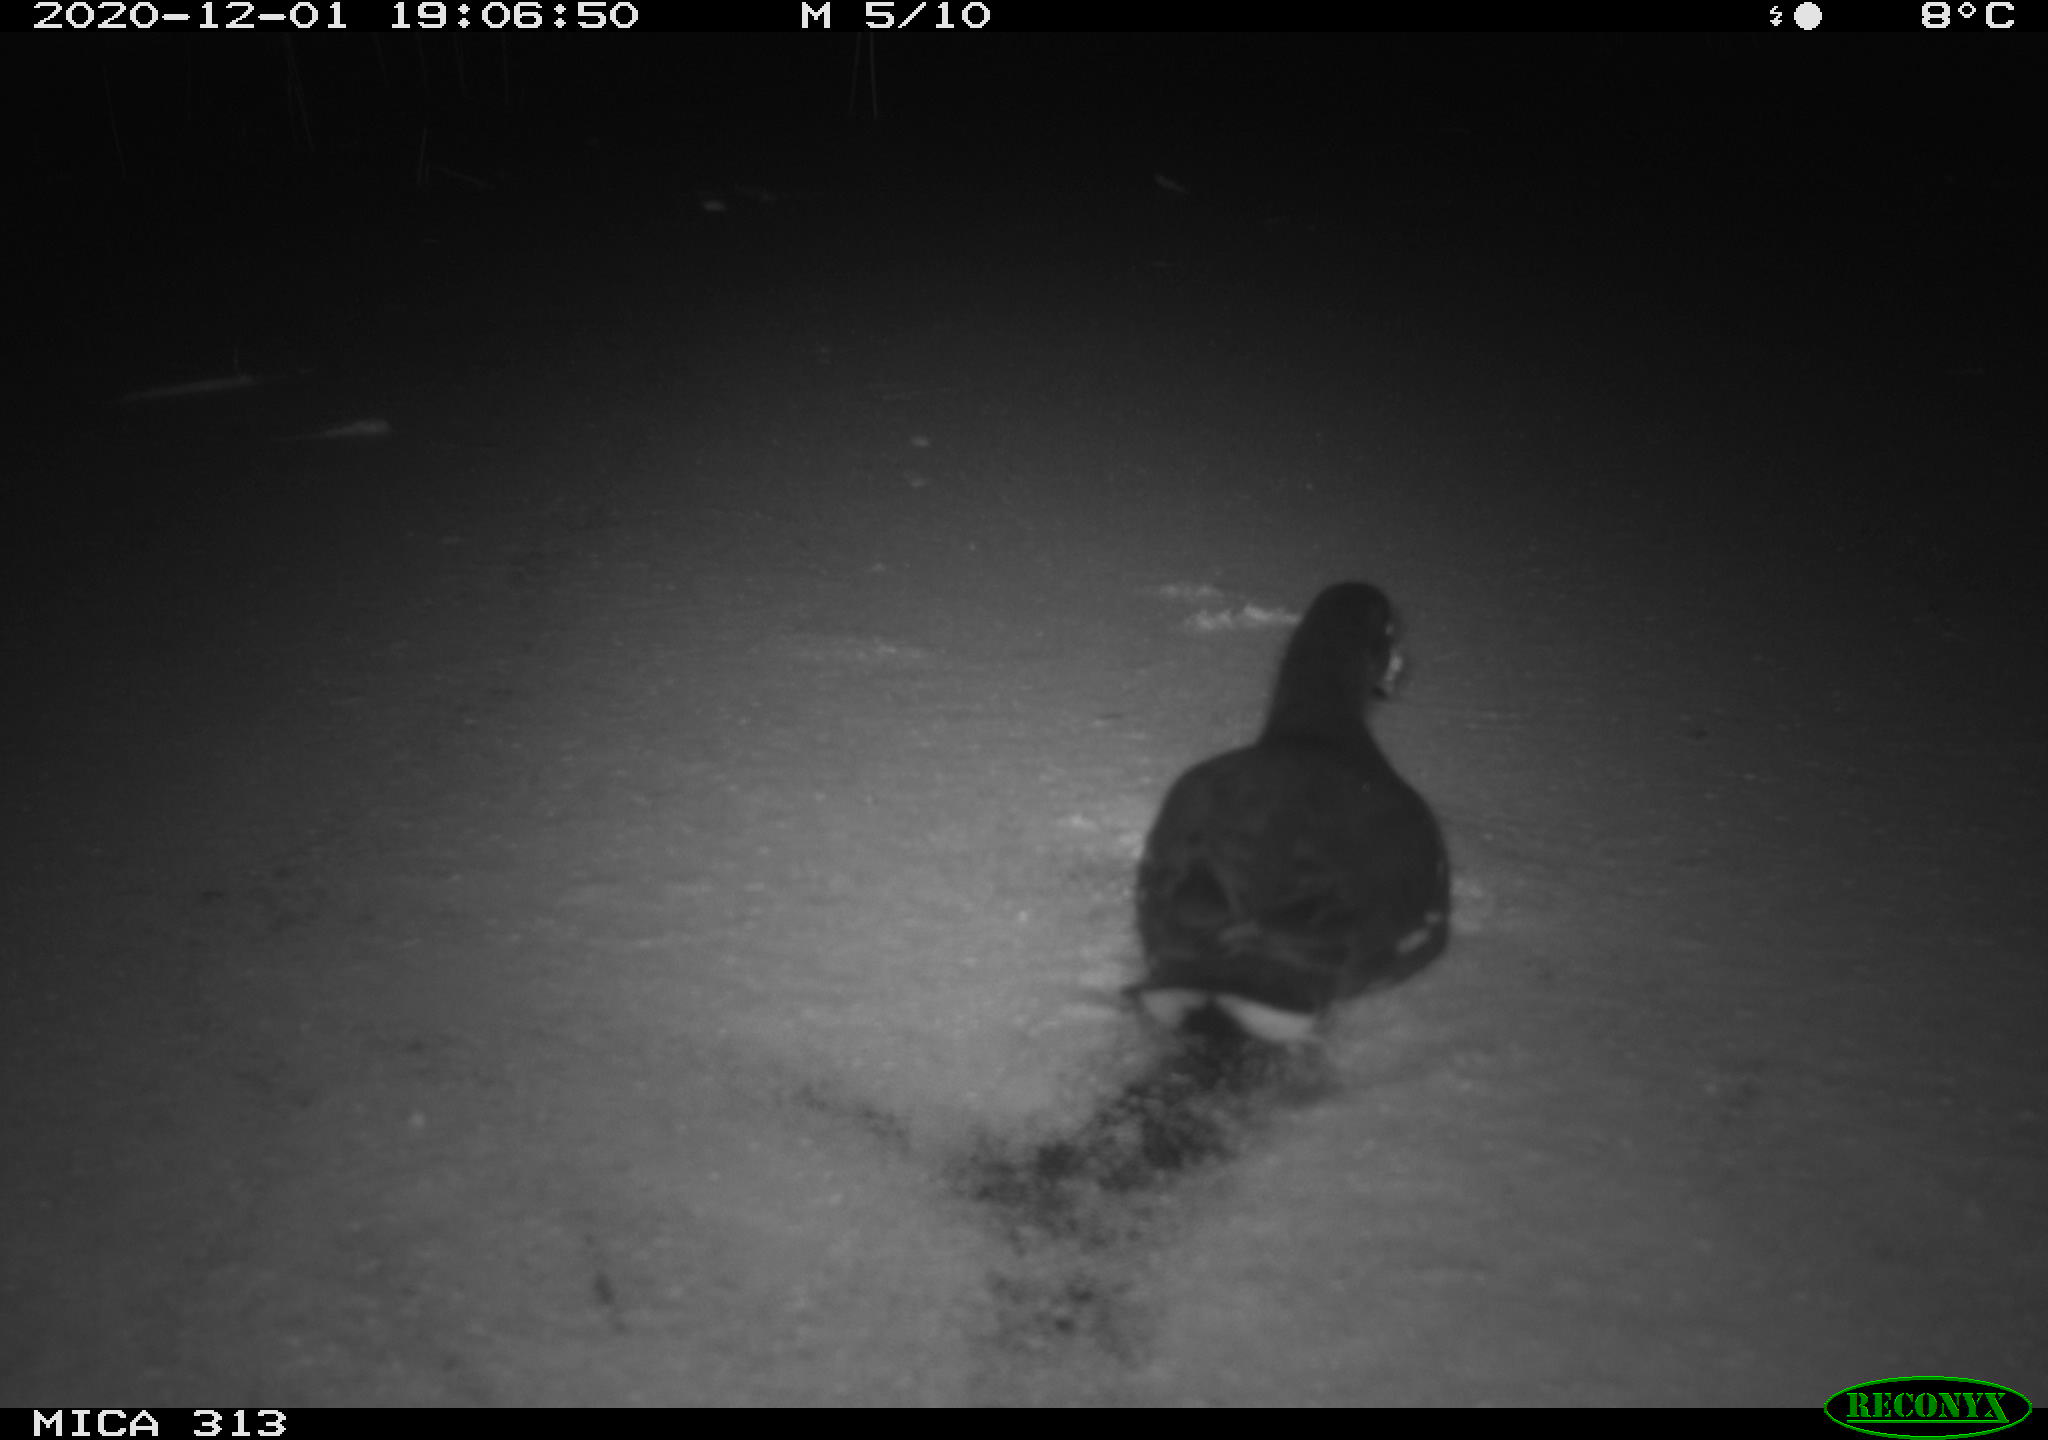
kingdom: Animalia
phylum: Chordata
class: Aves
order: Gruiformes
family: Rallidae
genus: Gallinula
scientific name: Gallinula chloropus
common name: Common moorhen
